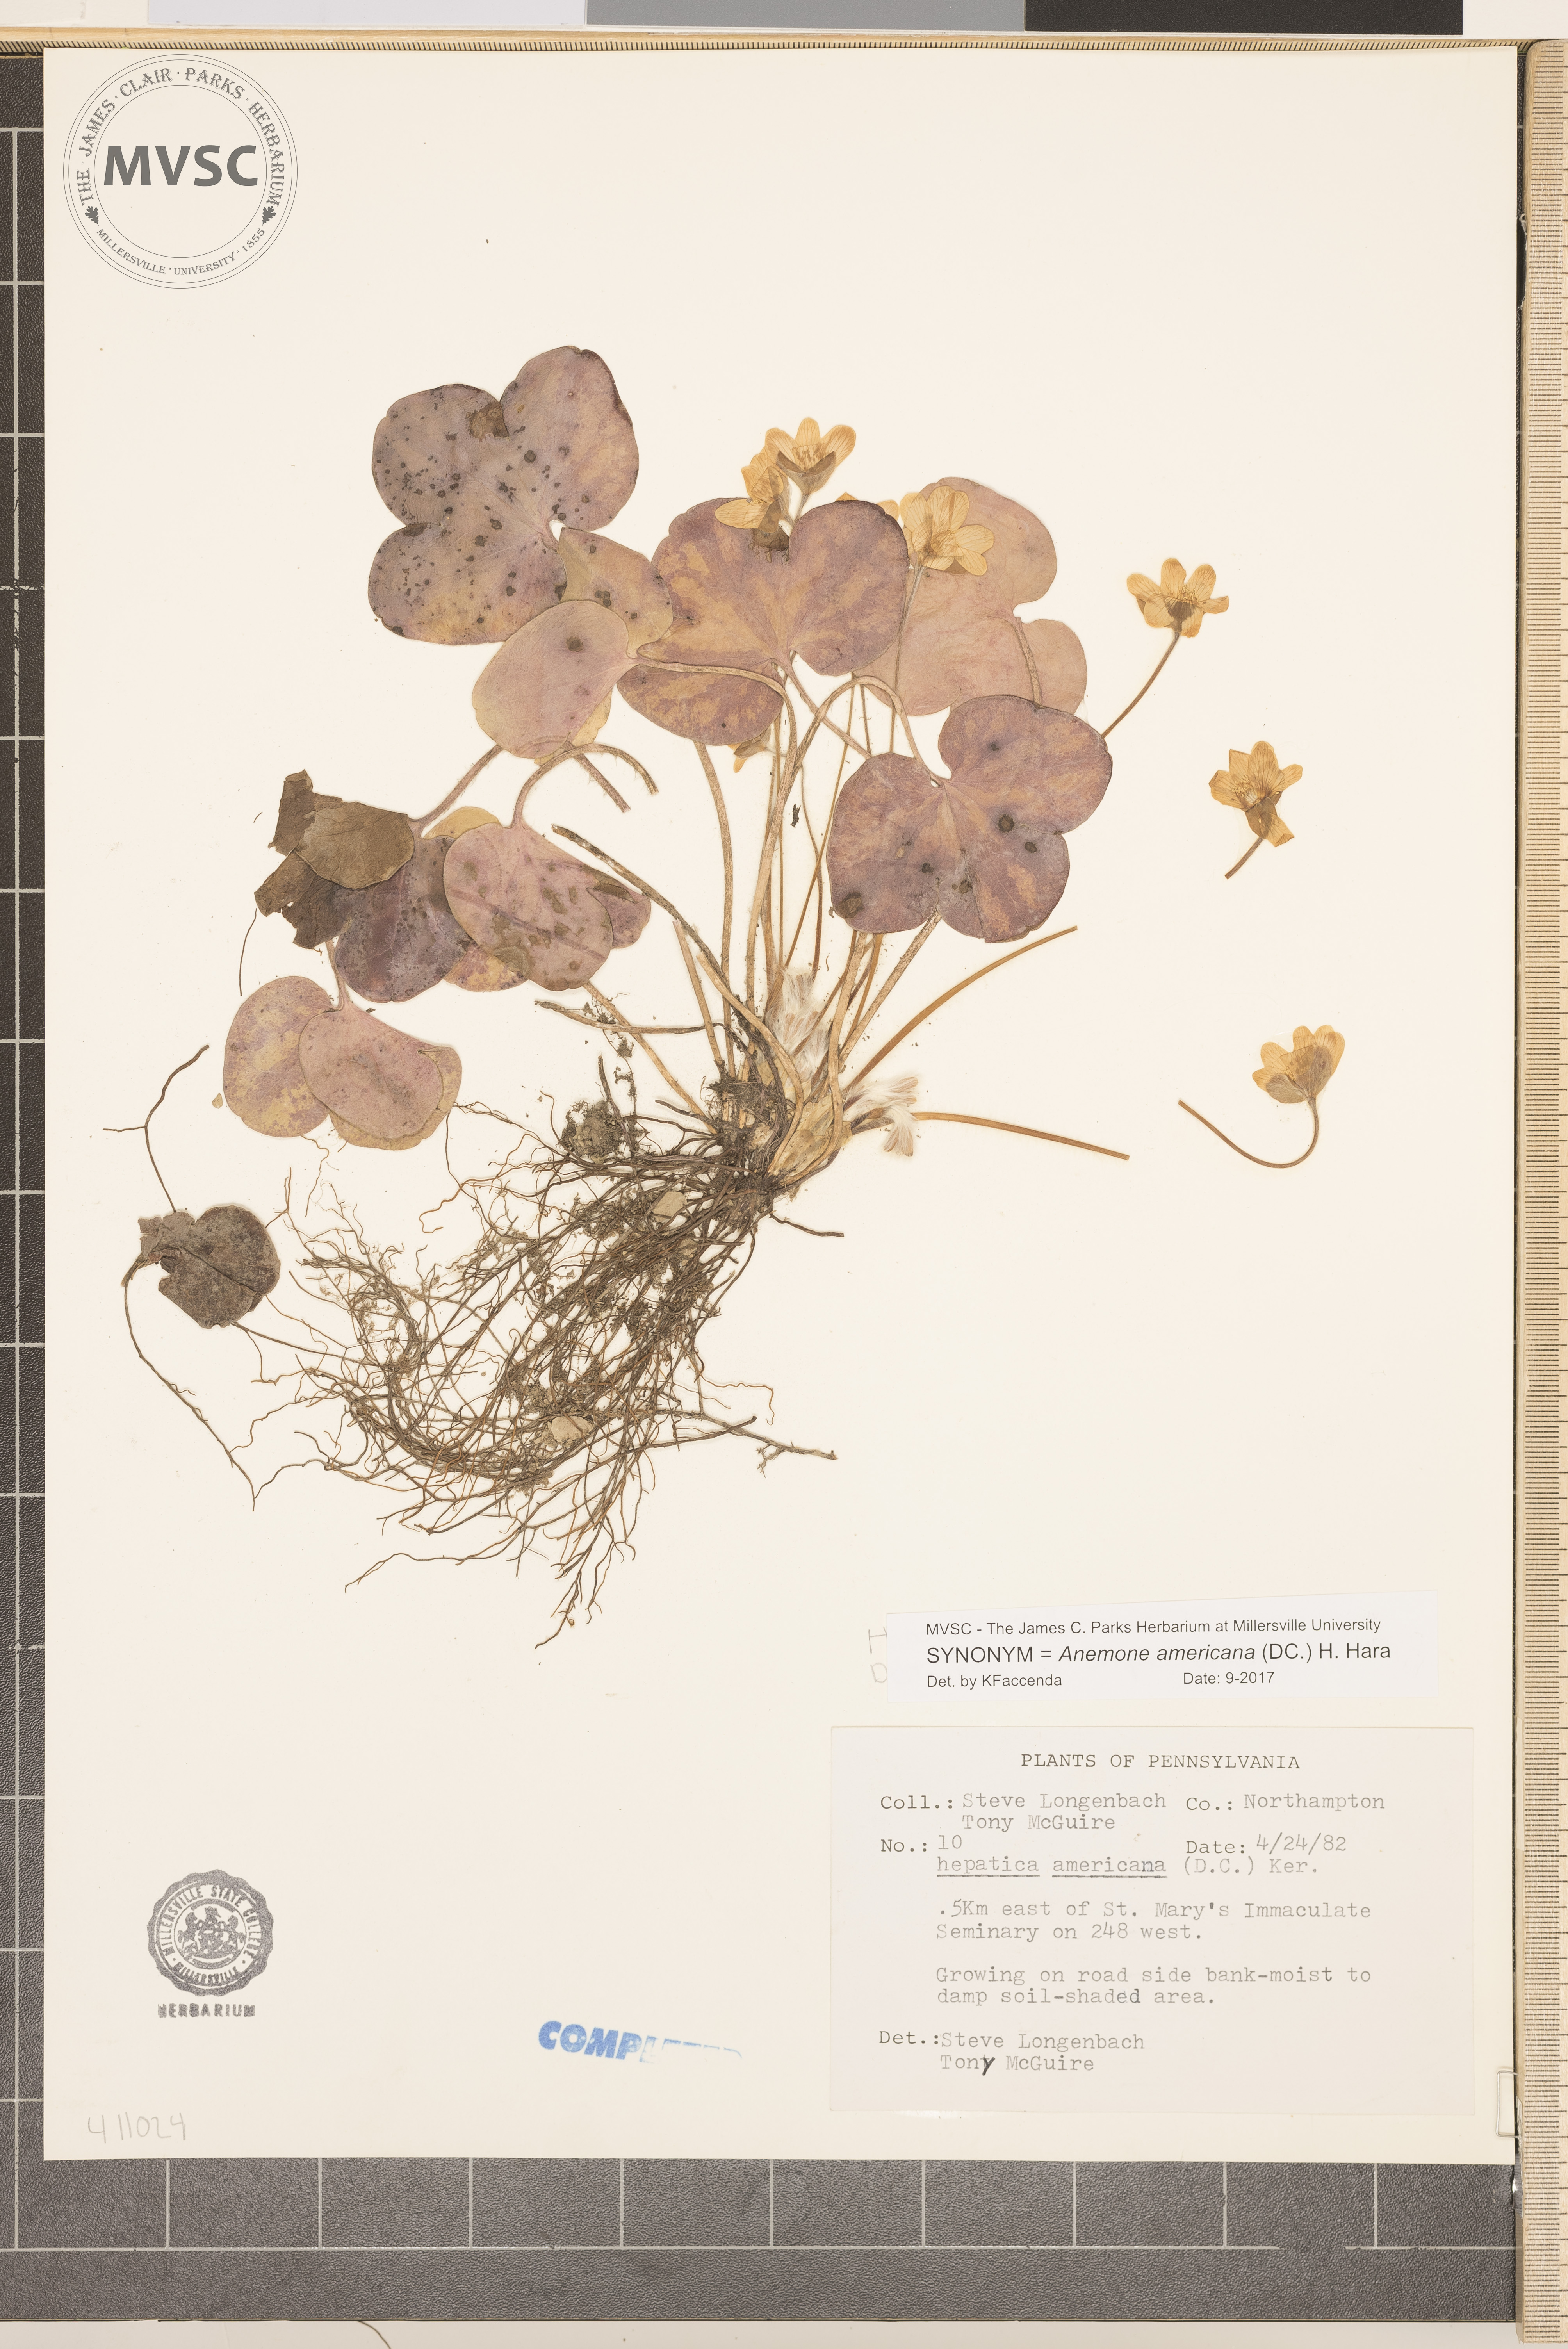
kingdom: Plantae
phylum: Tracheophyta
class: Magnoliopsida
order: Ranunculales
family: Ranunculaceae
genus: Hepatica
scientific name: Hepatica americana
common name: American hepatica
